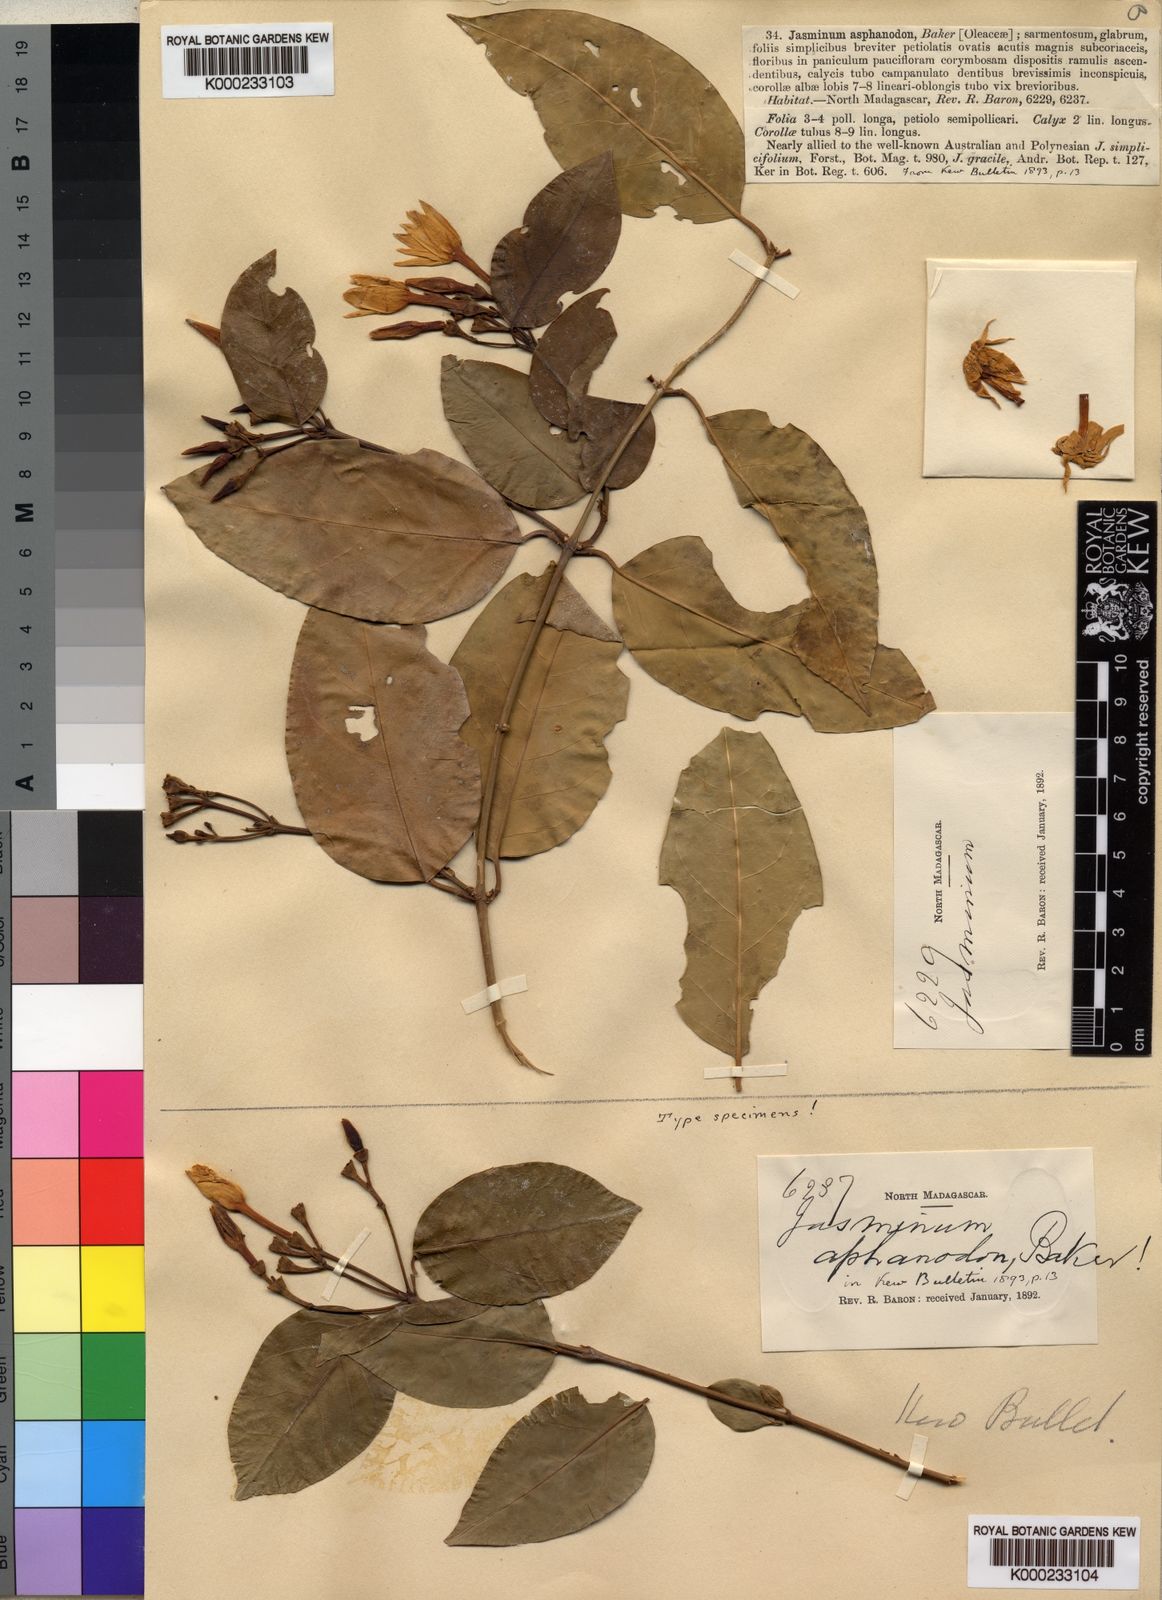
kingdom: Plantae
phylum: Tracheophyta
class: Magnoliopsida
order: Lamiales
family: Oleaceae
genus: Jasminum
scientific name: Jasminum
